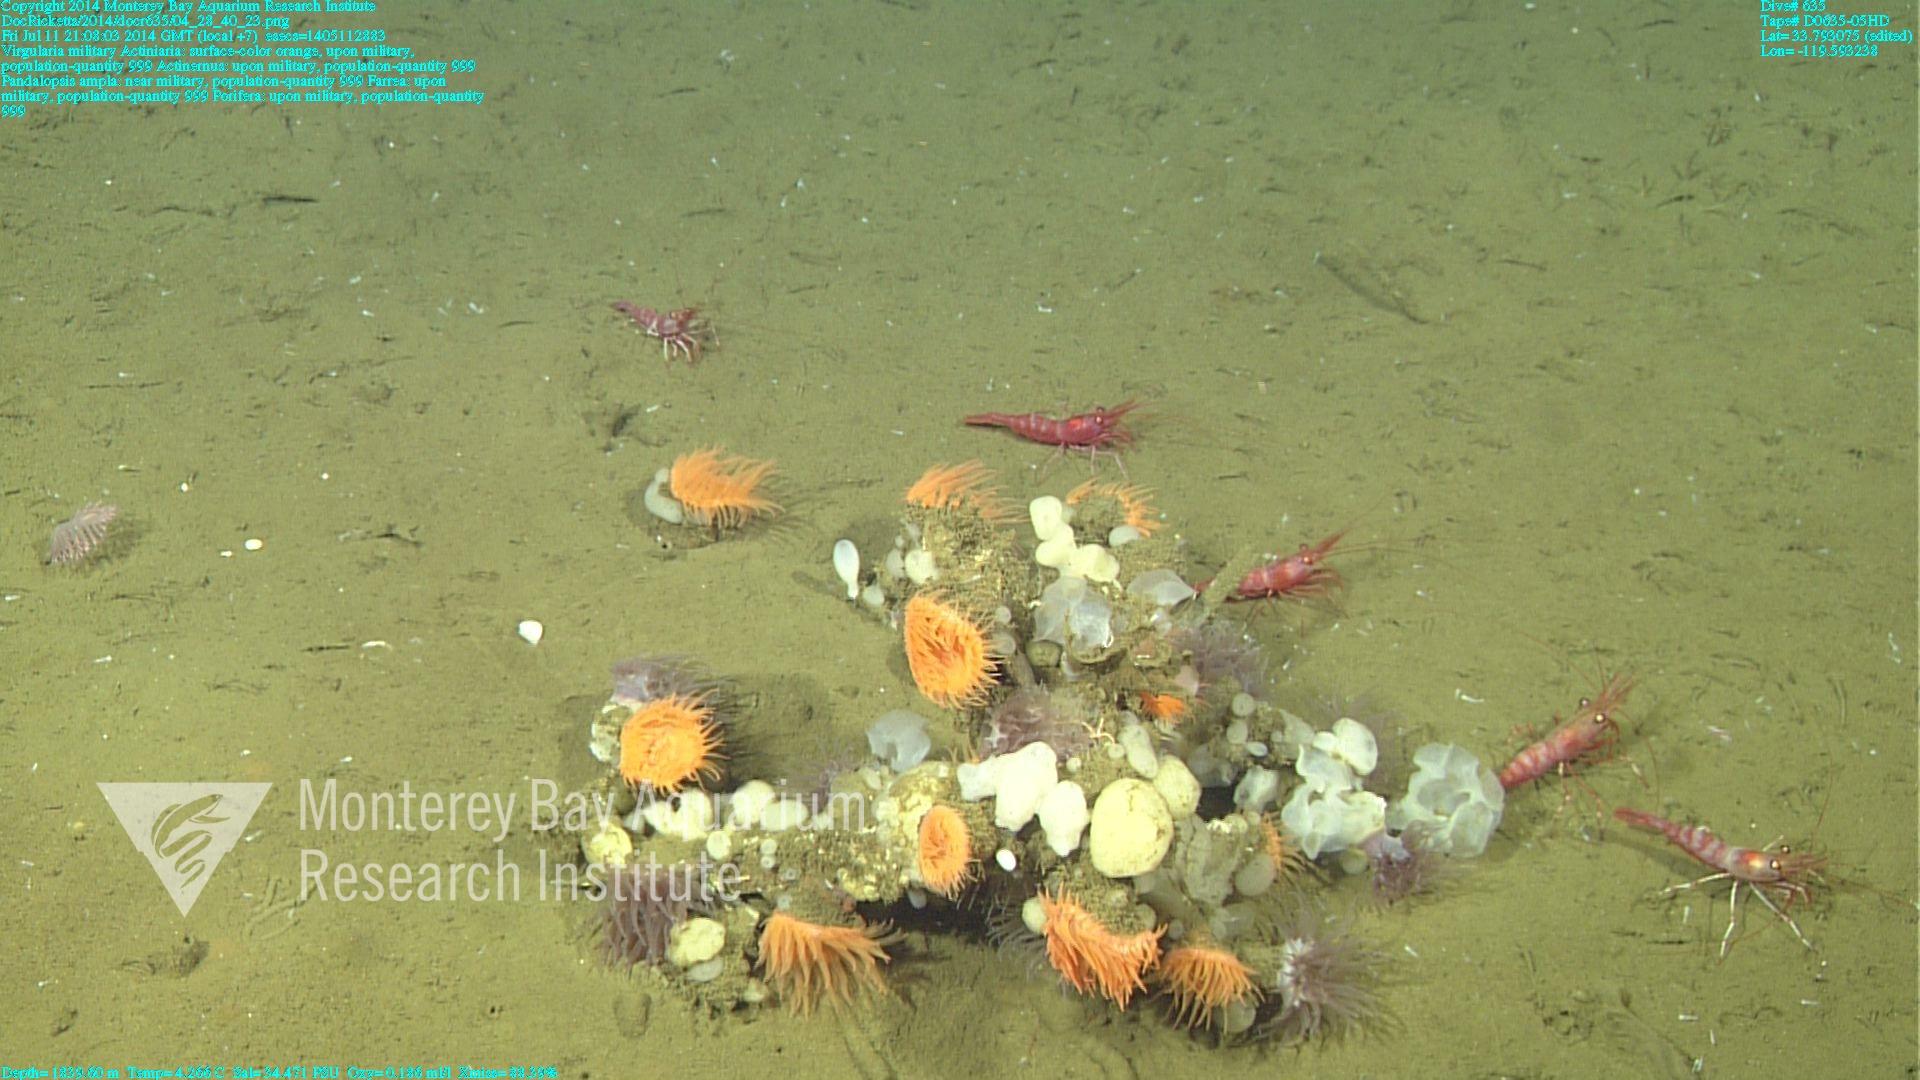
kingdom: Animalia
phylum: Cnidaria
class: Anthozoa
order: Scleralcyonacea
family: Virgulariidae
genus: Virgularia
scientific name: Virgularia
